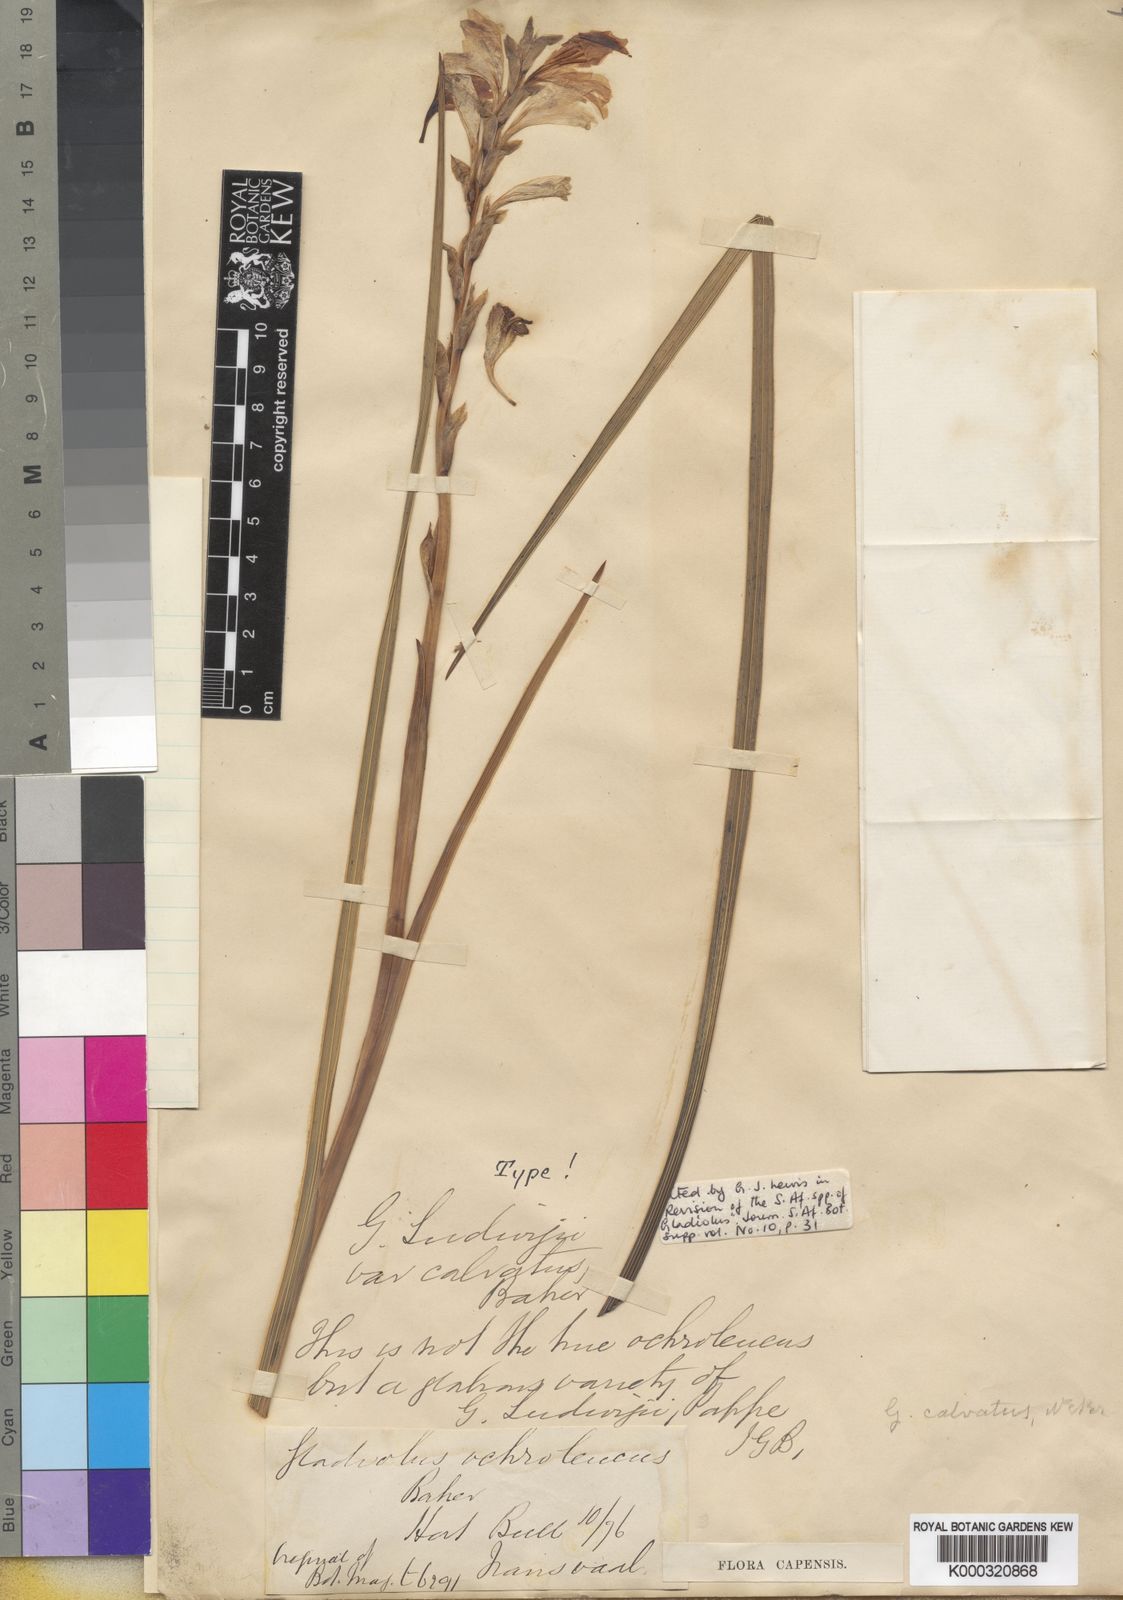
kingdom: Plantae
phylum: Tracheophyta
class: Liliopsida
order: Asparagales
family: Iridaceae
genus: Gladiolus
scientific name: Gladiolus sericeovillosus
